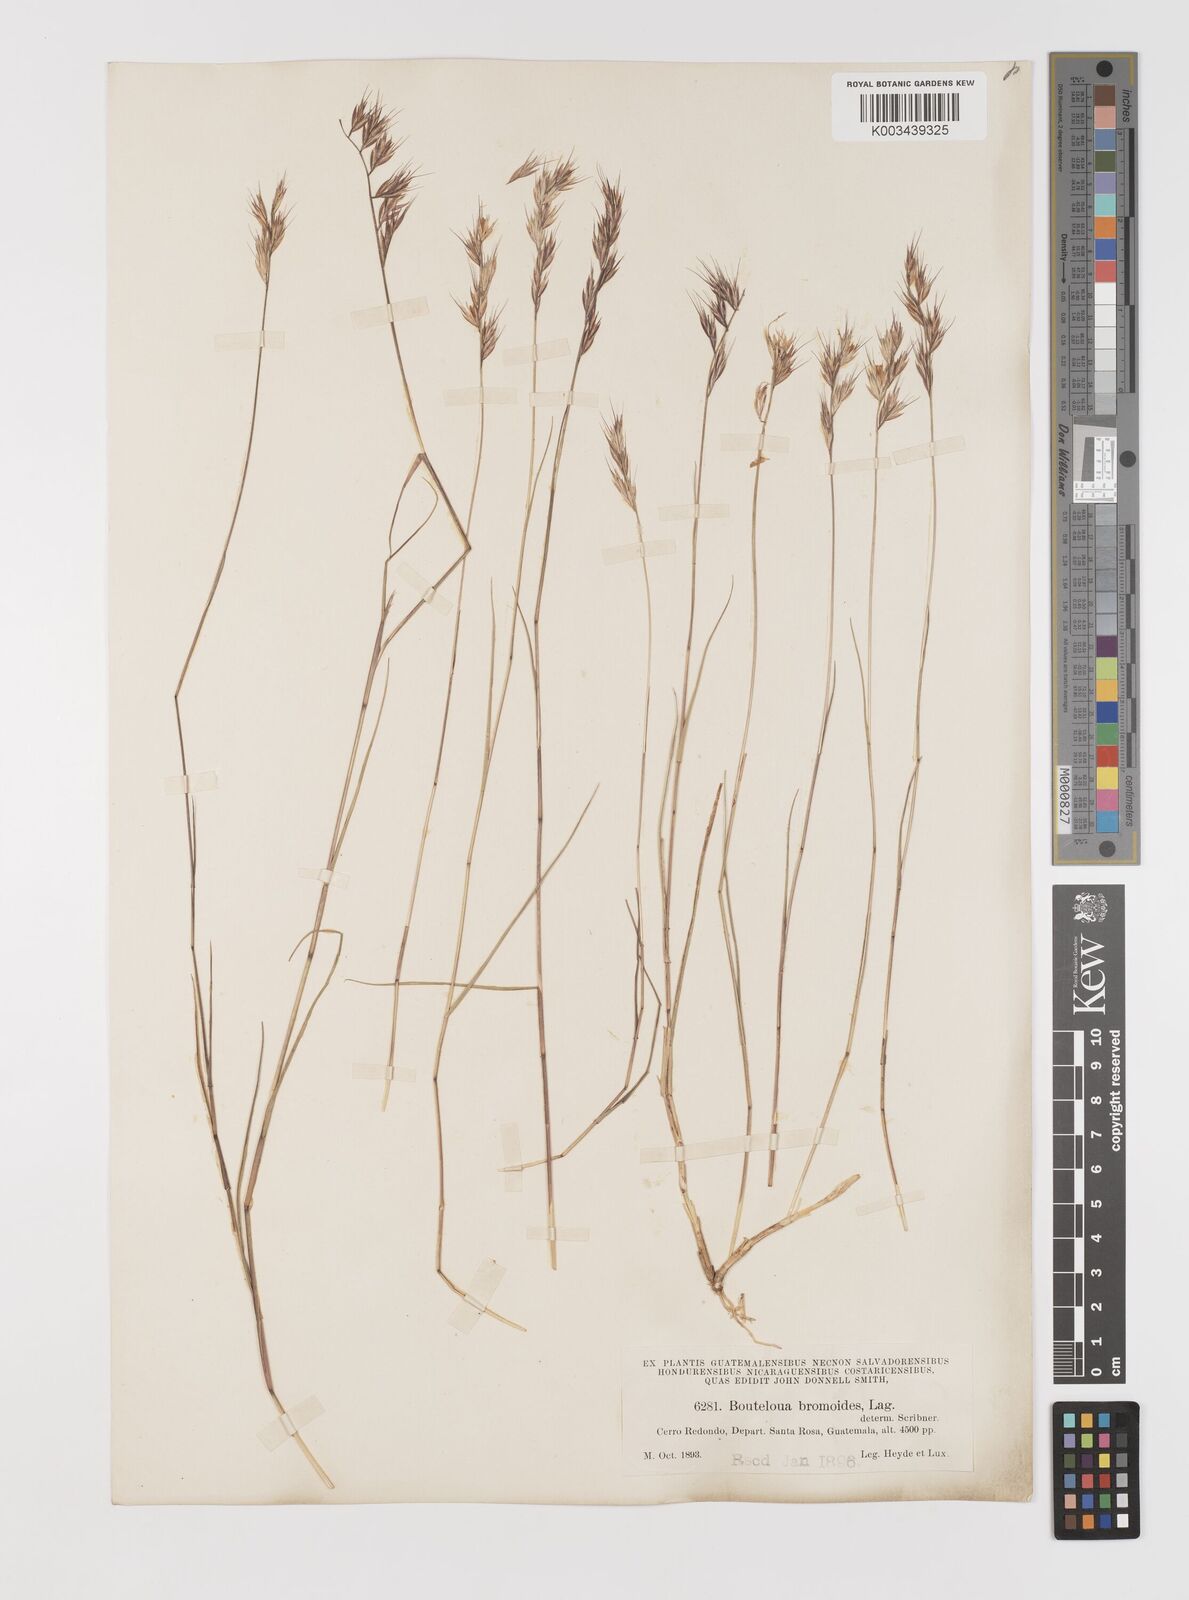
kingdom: Plantae
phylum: Tracheophyta
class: Liliopsida
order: Poales
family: Poaceae
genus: Bouteloua
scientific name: Bouteloua radicosa
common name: Purple grama
